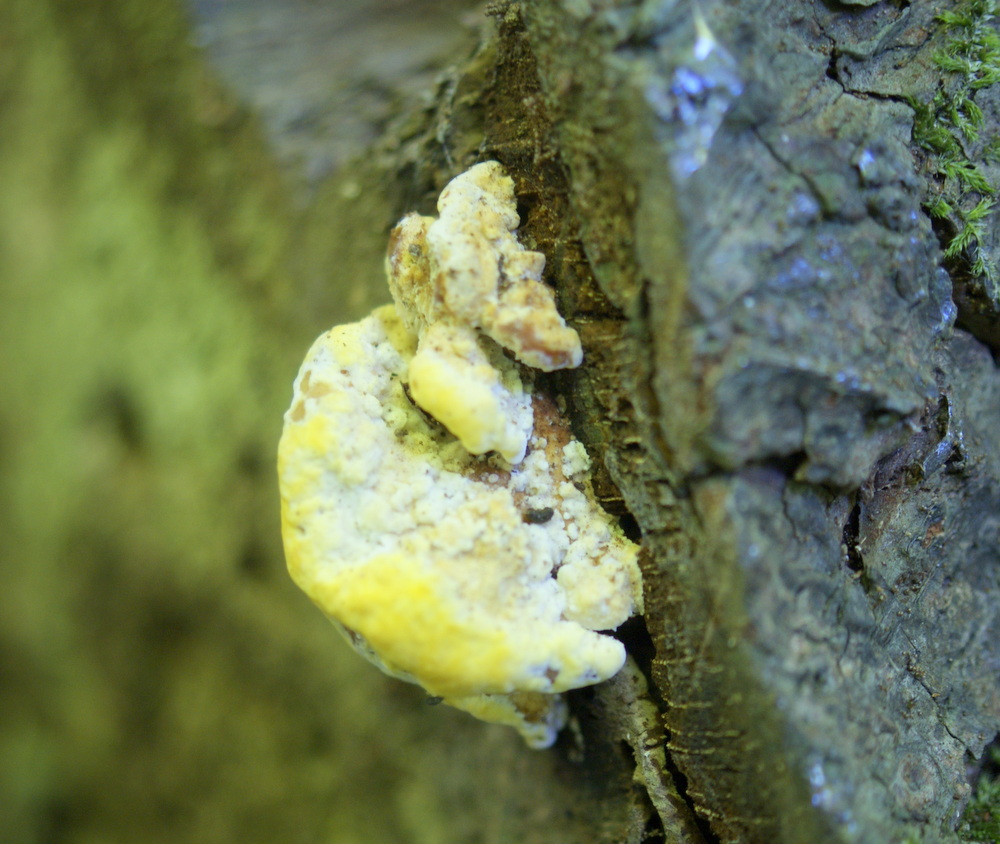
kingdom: Fungi
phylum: Basidiomycota
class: Agaricomycetes
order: Polyporales
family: Steccherinaceae
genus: Antrodiella
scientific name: Antrodiella serpula
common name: gulrandet elastikporesvamp
